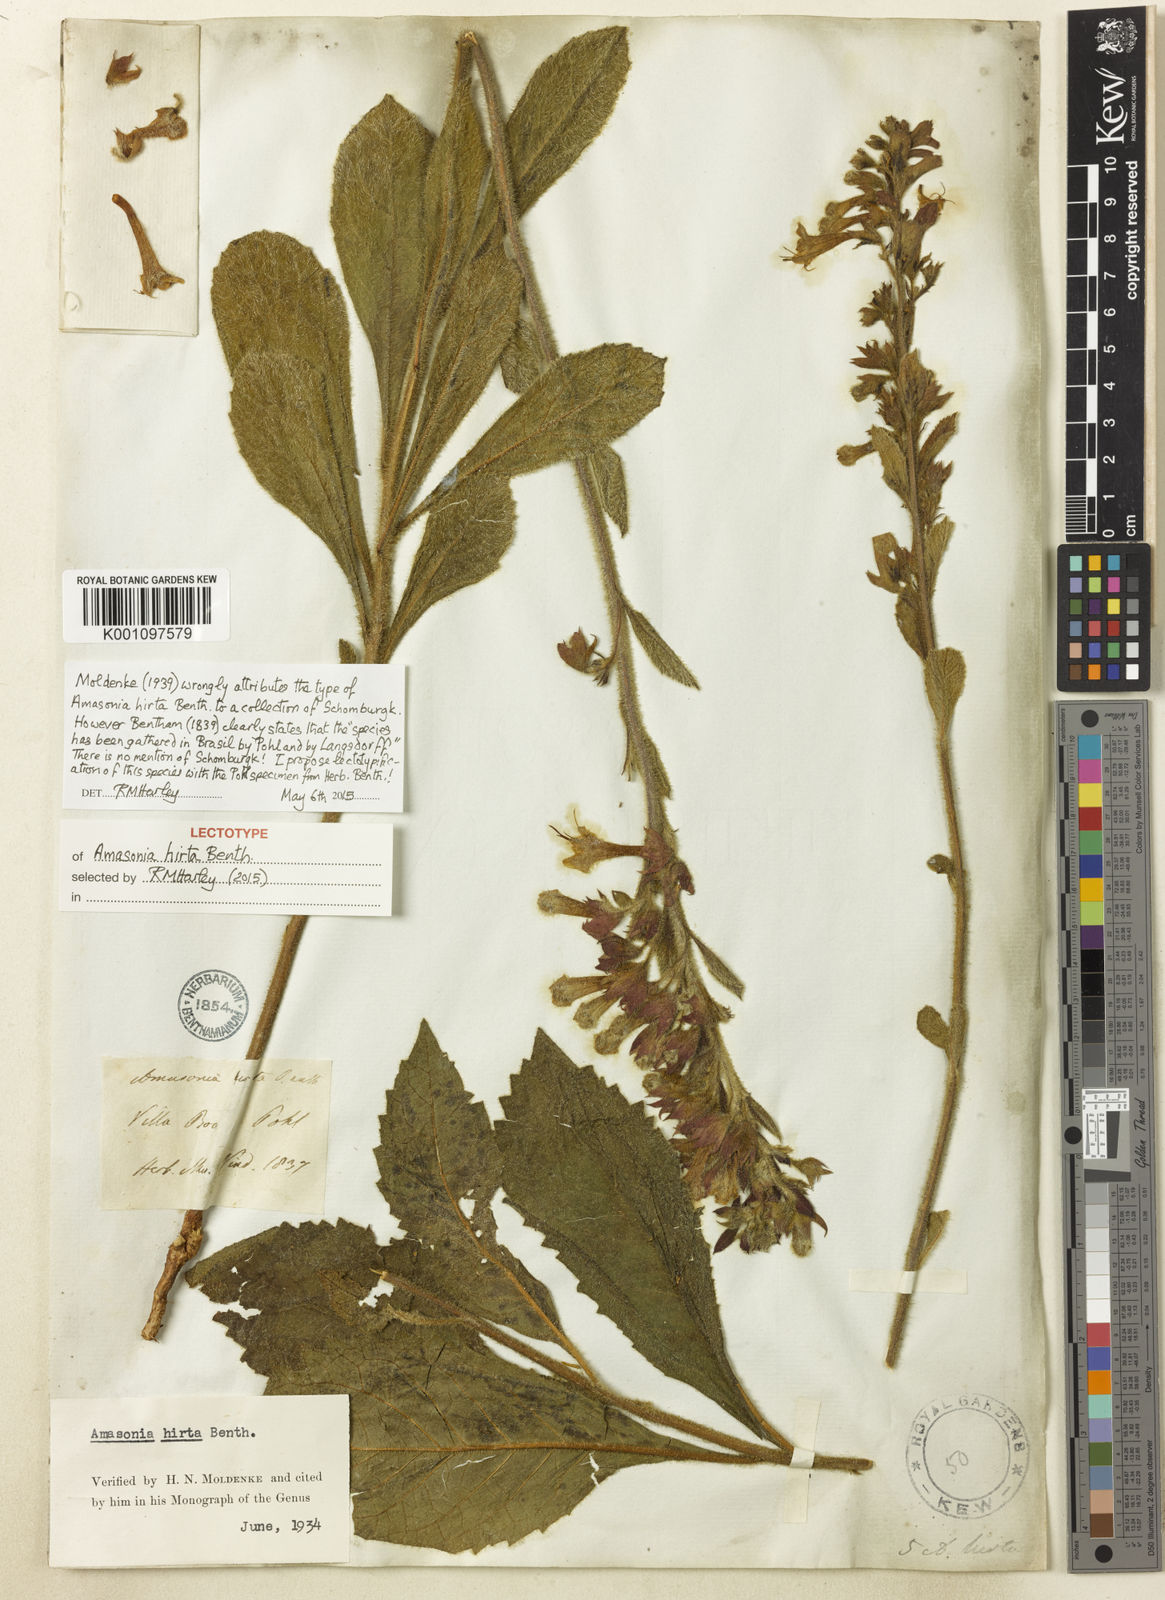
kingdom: Plantae
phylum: Tracheophyta
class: Magnoliopsida
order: Lamiales
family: Lamiaceae
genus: Amasonia
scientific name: Amasonia hirta
